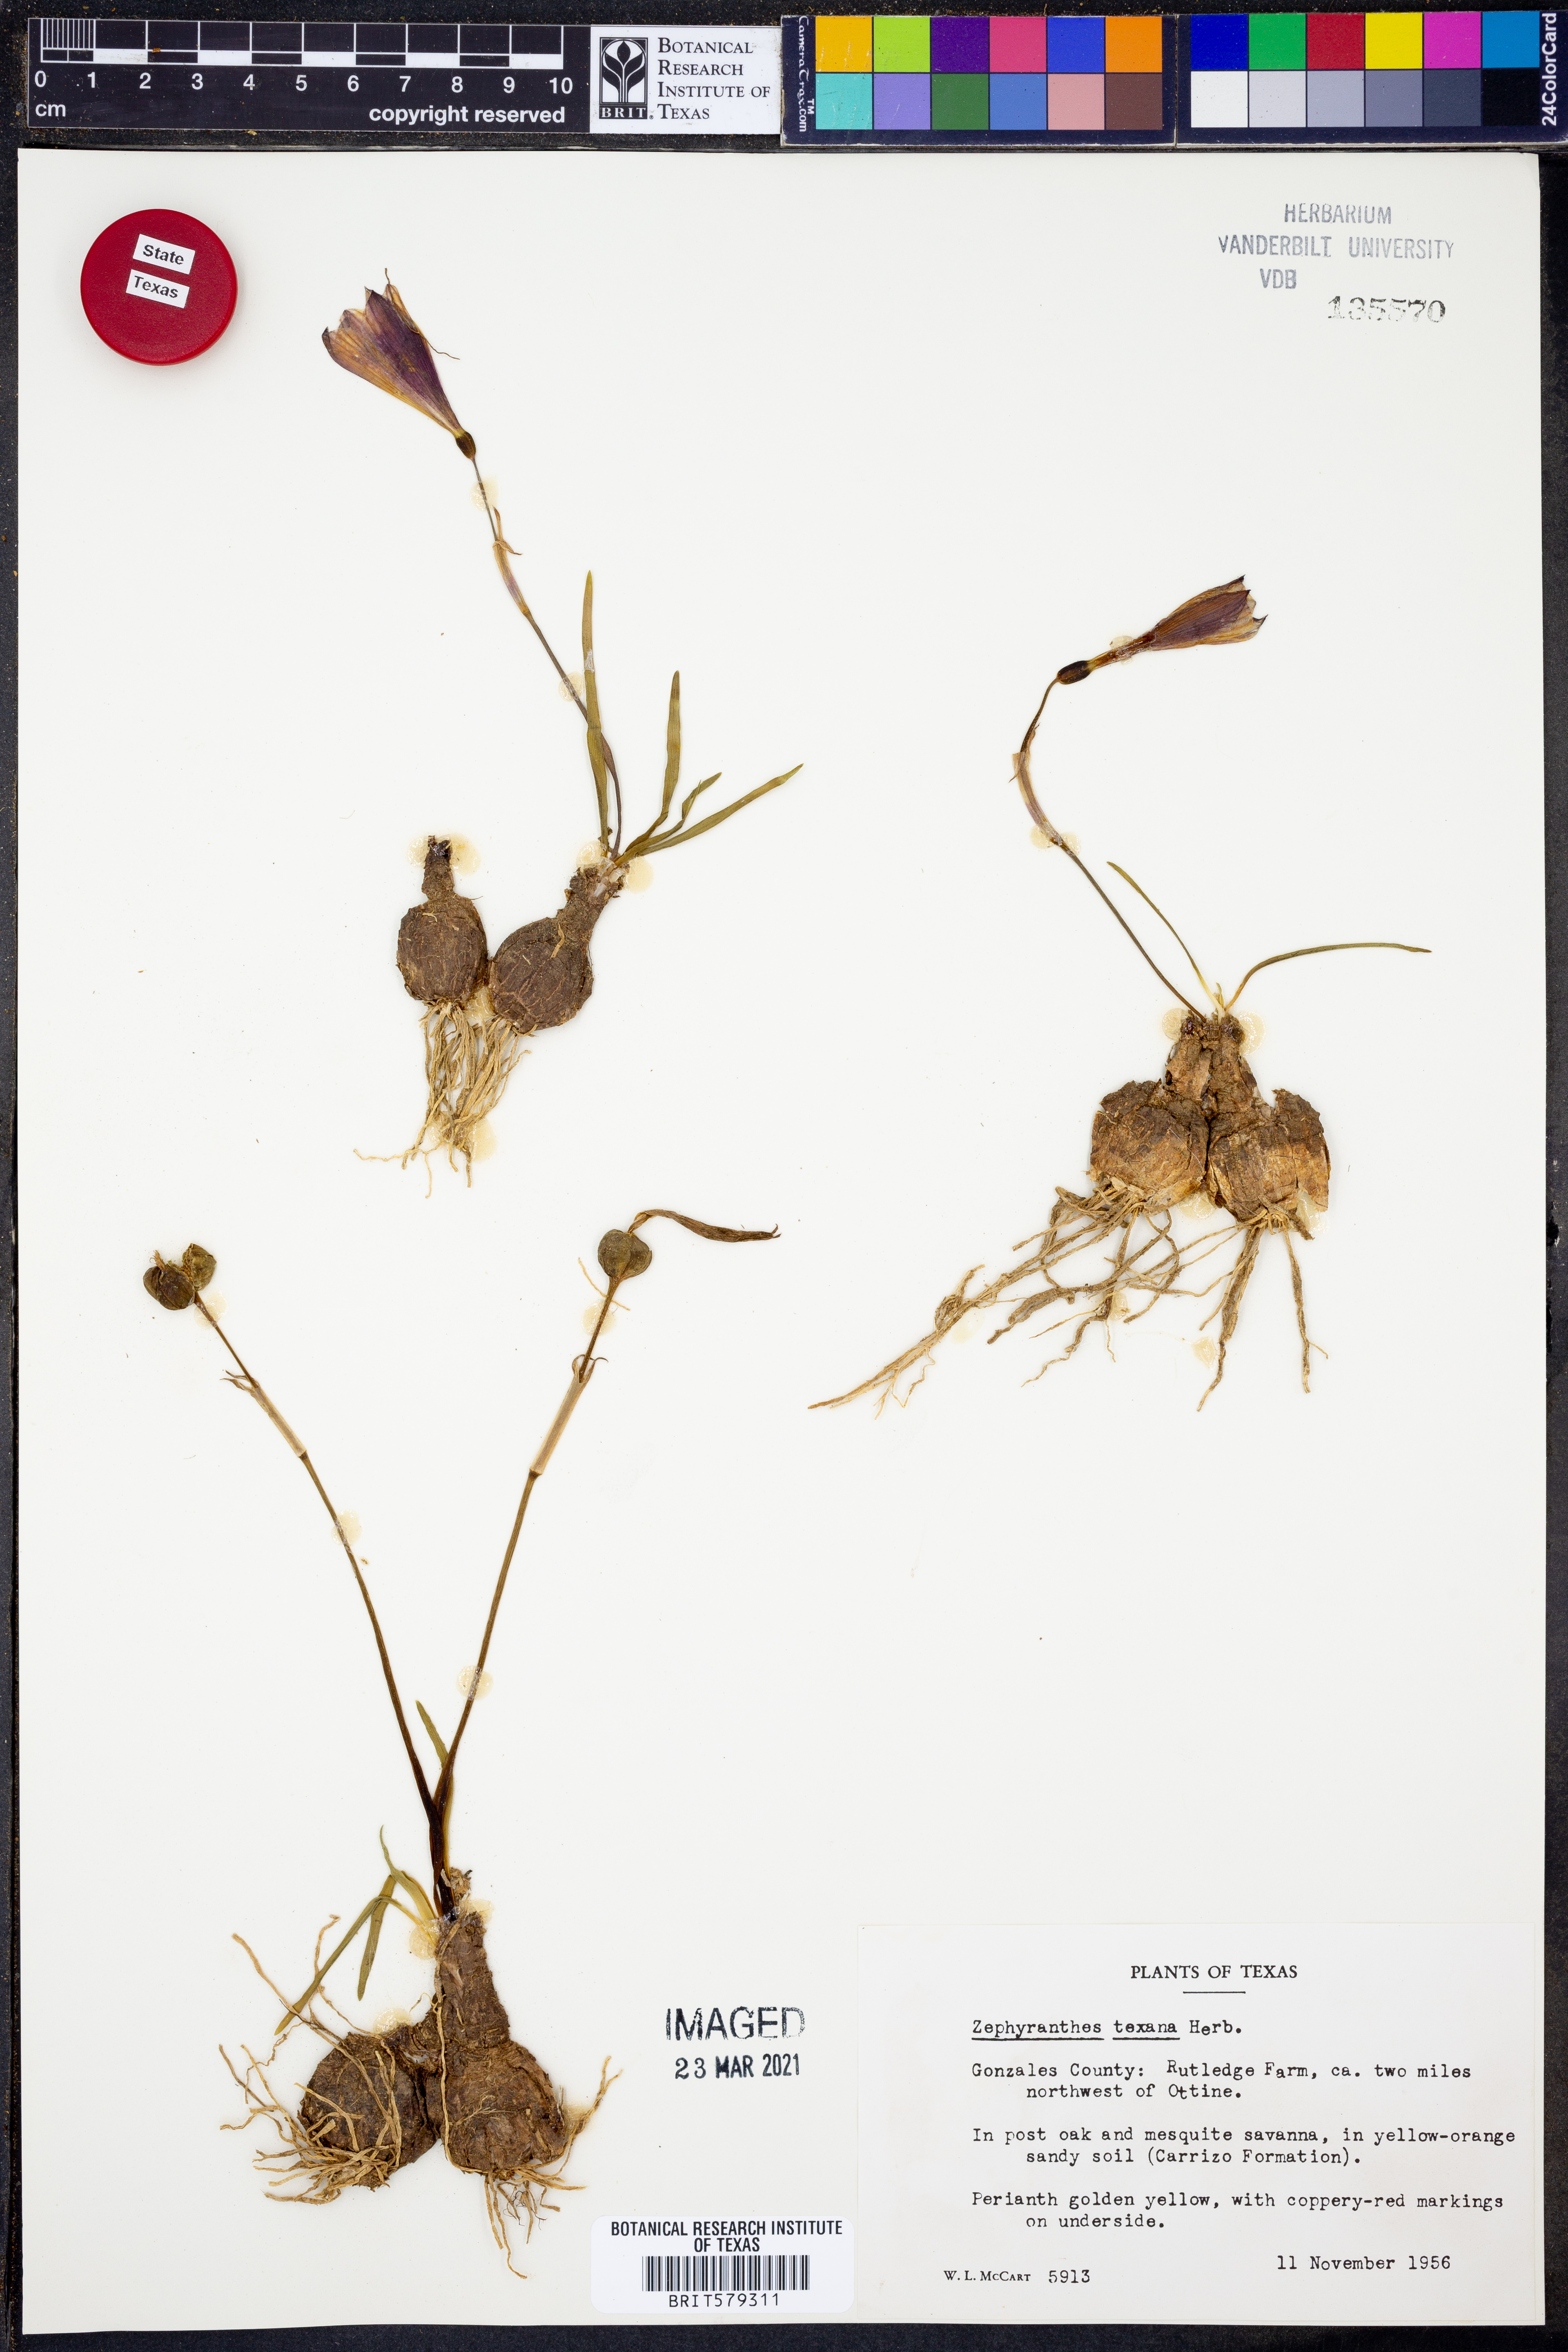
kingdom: Plantae
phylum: Tracheophyta
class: Liliopsida
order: Asparagales
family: Amaryllidaceae
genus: Zephyranthes
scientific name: Zephyranthes tubispatha
